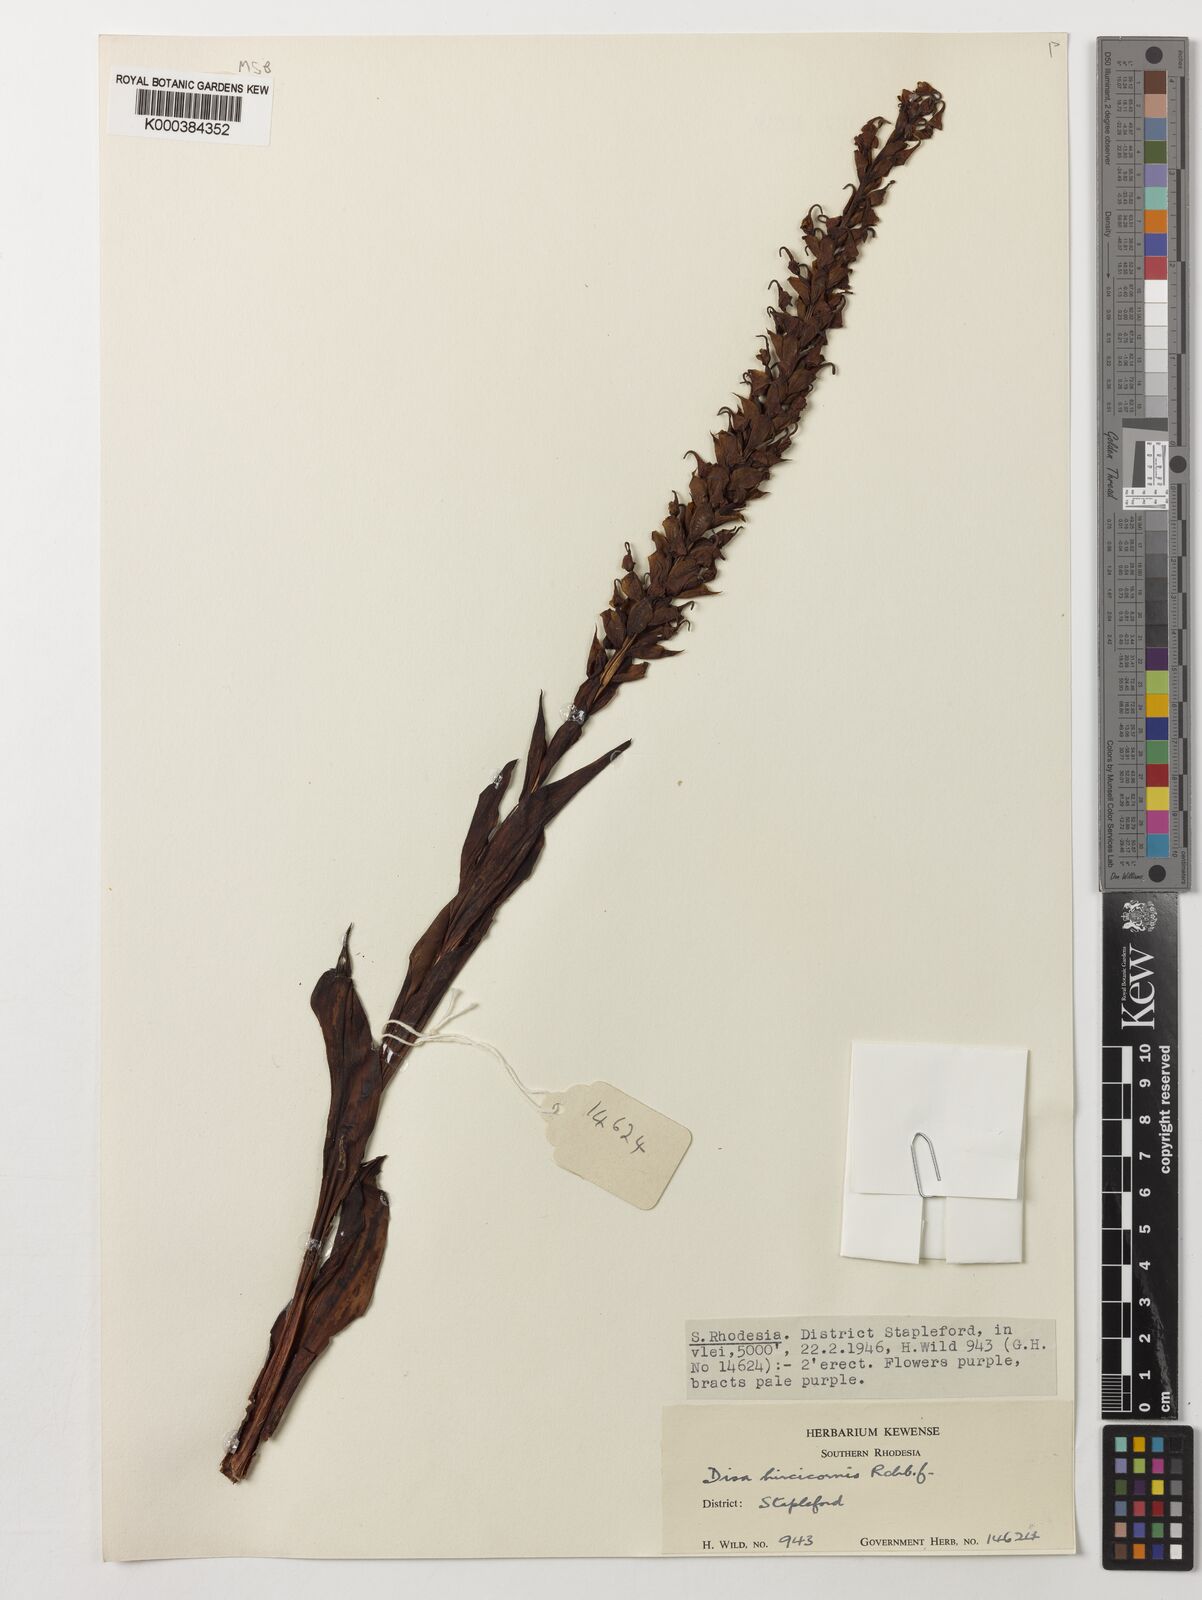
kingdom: Plantae
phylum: Tracheophyta
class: Liliopsida
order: Asparagales
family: Orchidaceae
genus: Disa
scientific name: Disa hircicornis
